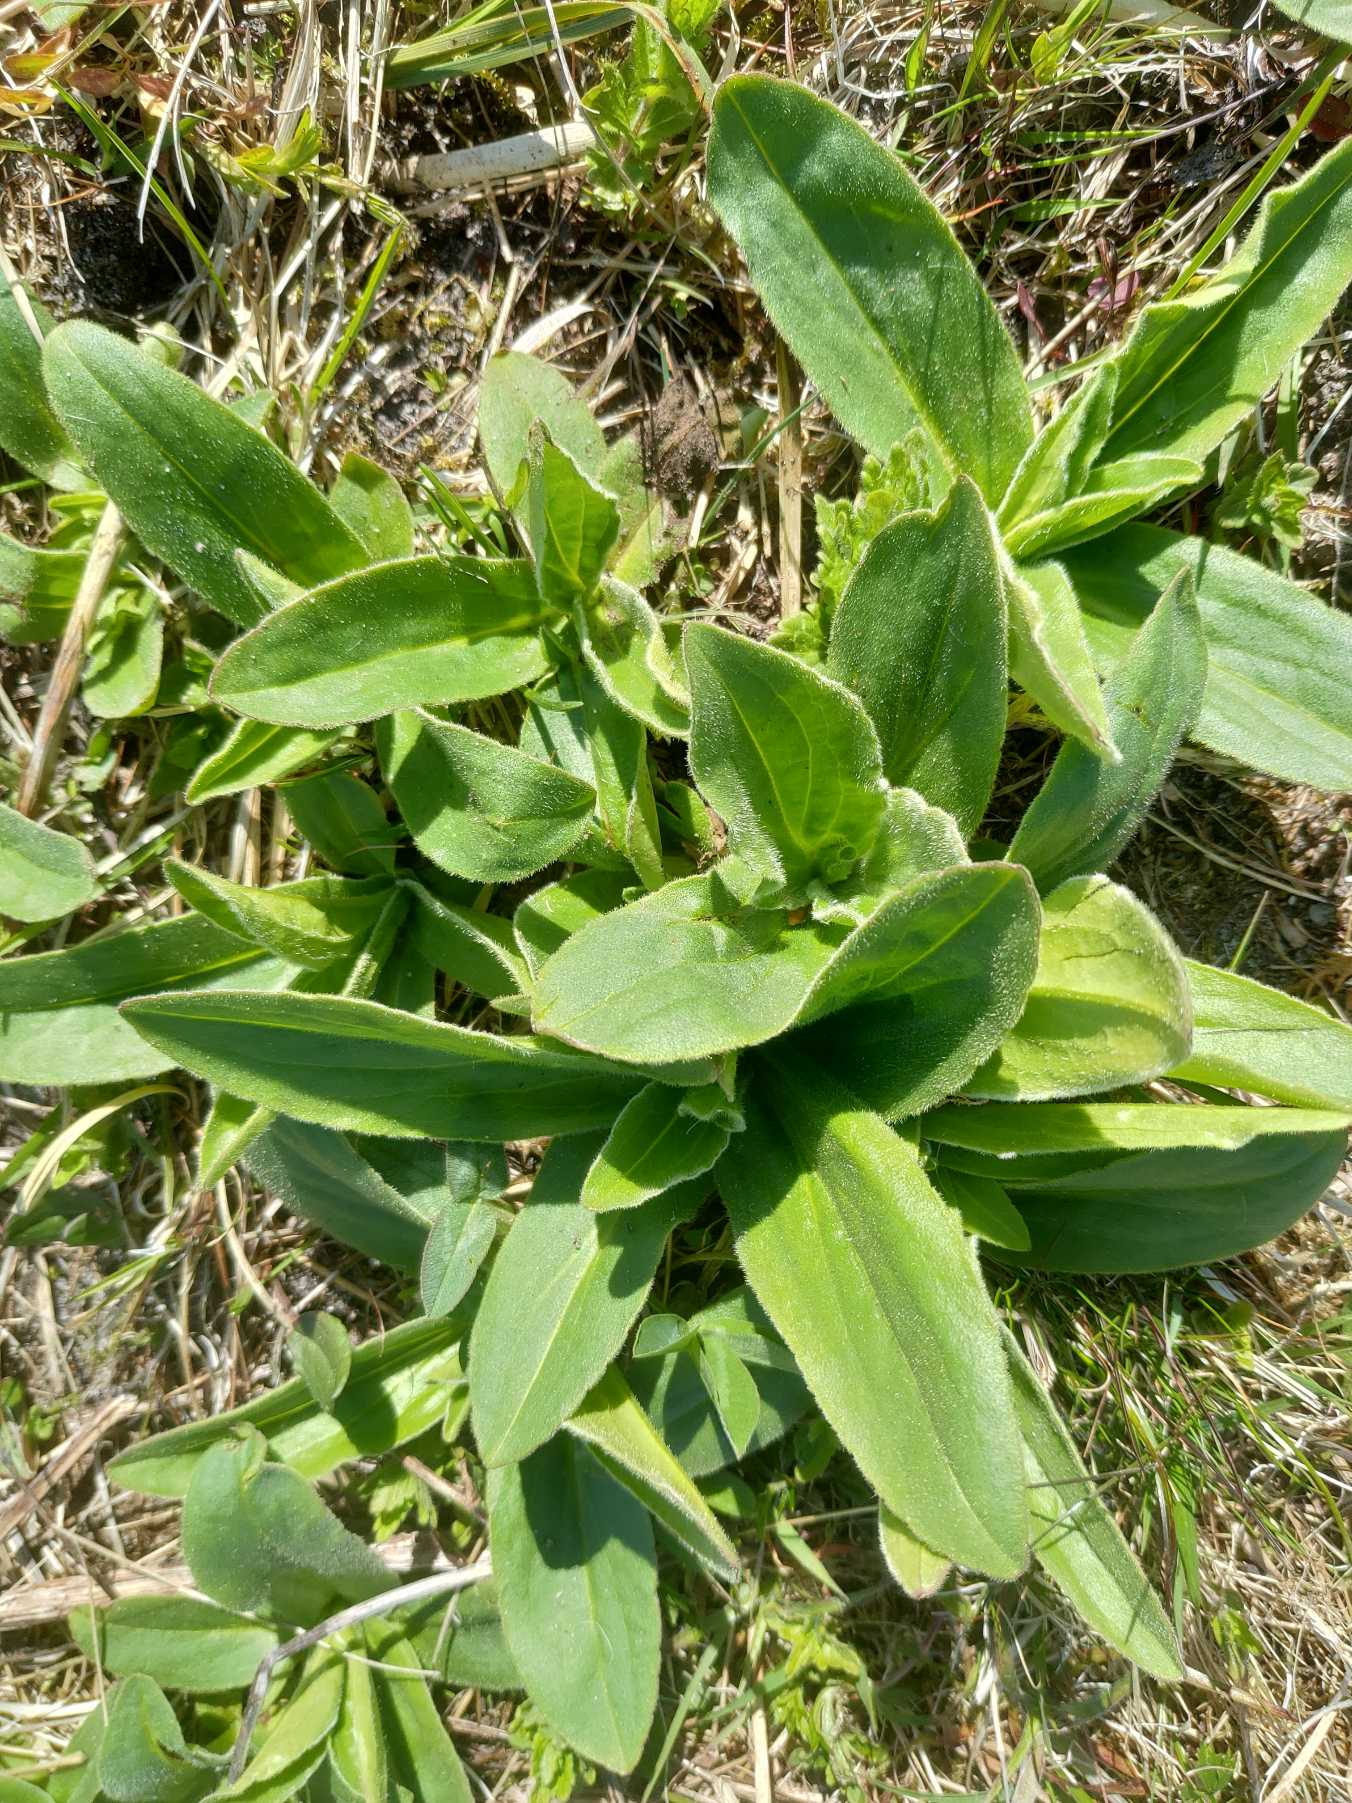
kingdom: Plantae
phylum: Tracheophyta
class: Magnoliopsida
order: Asterales
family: Asteraceae
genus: Arnica
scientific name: Arnica montana
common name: Guldblomme
